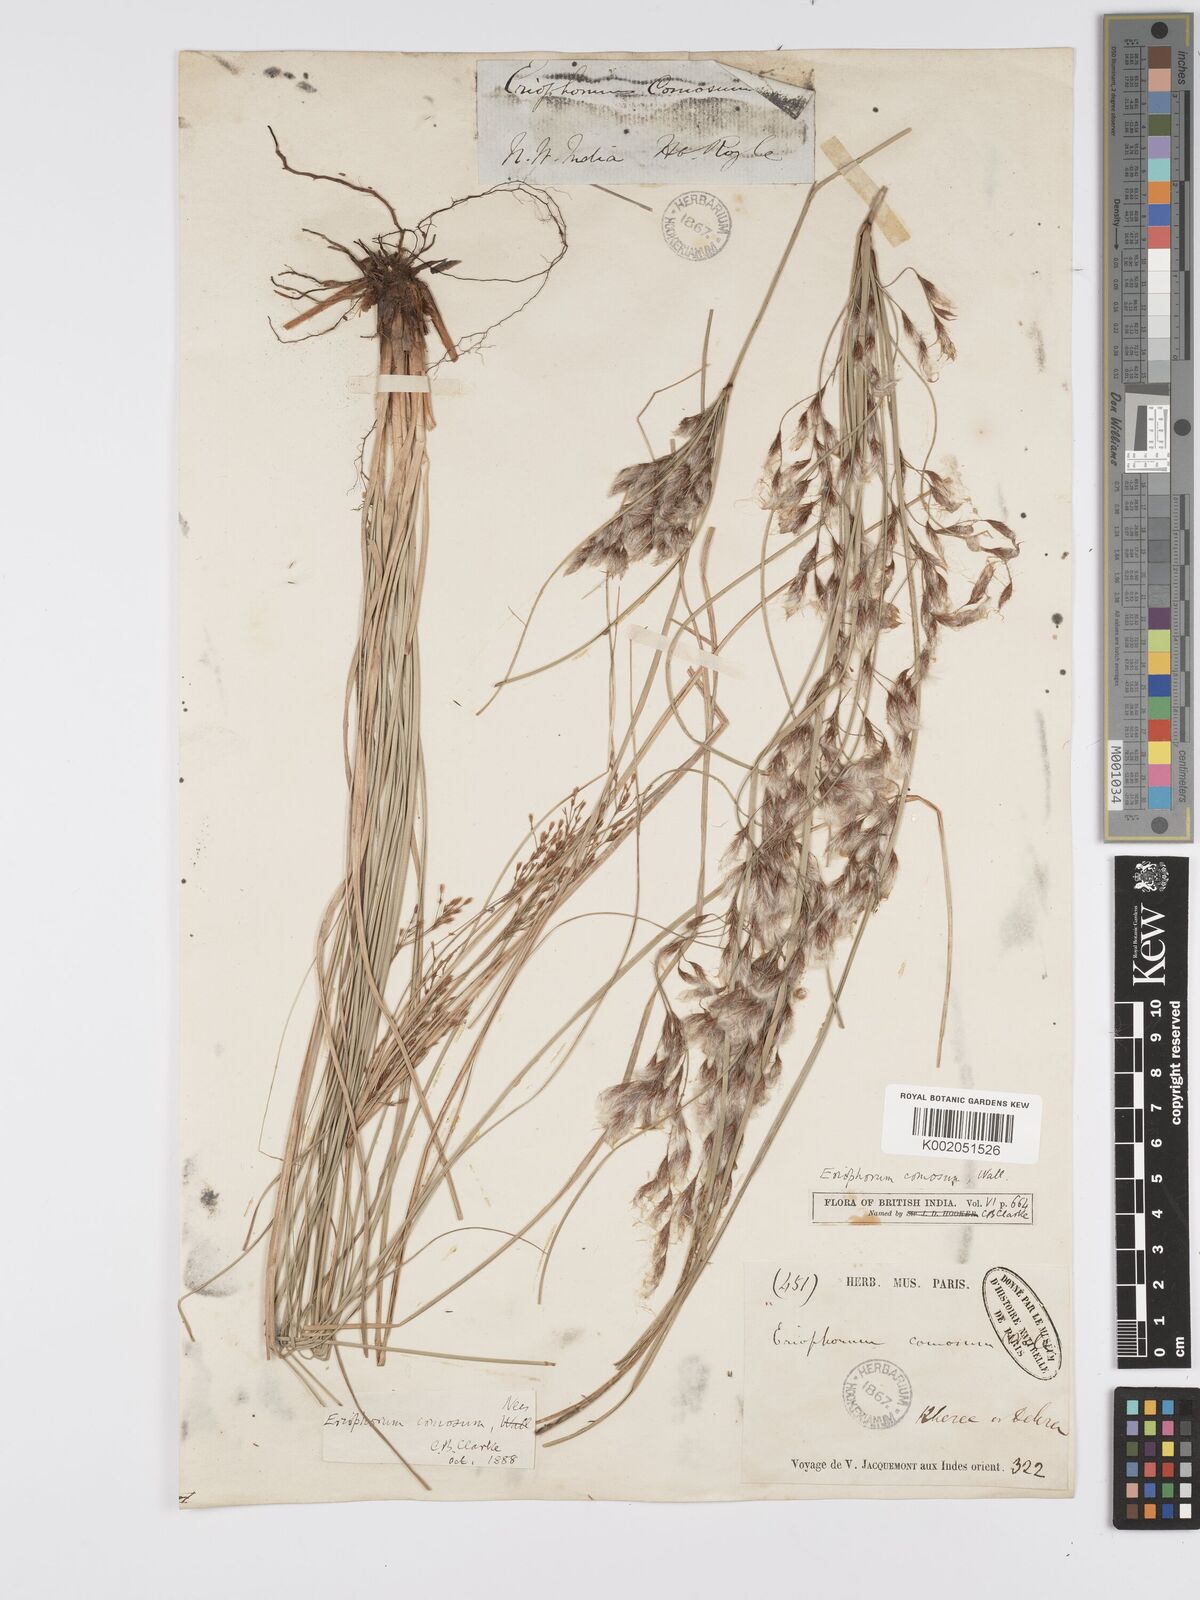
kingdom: Plantae
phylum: Tracheophyta
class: Liliopsida
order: Poales
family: Cyperaceae
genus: Erioscirpus
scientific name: Erioscirpus comosus
